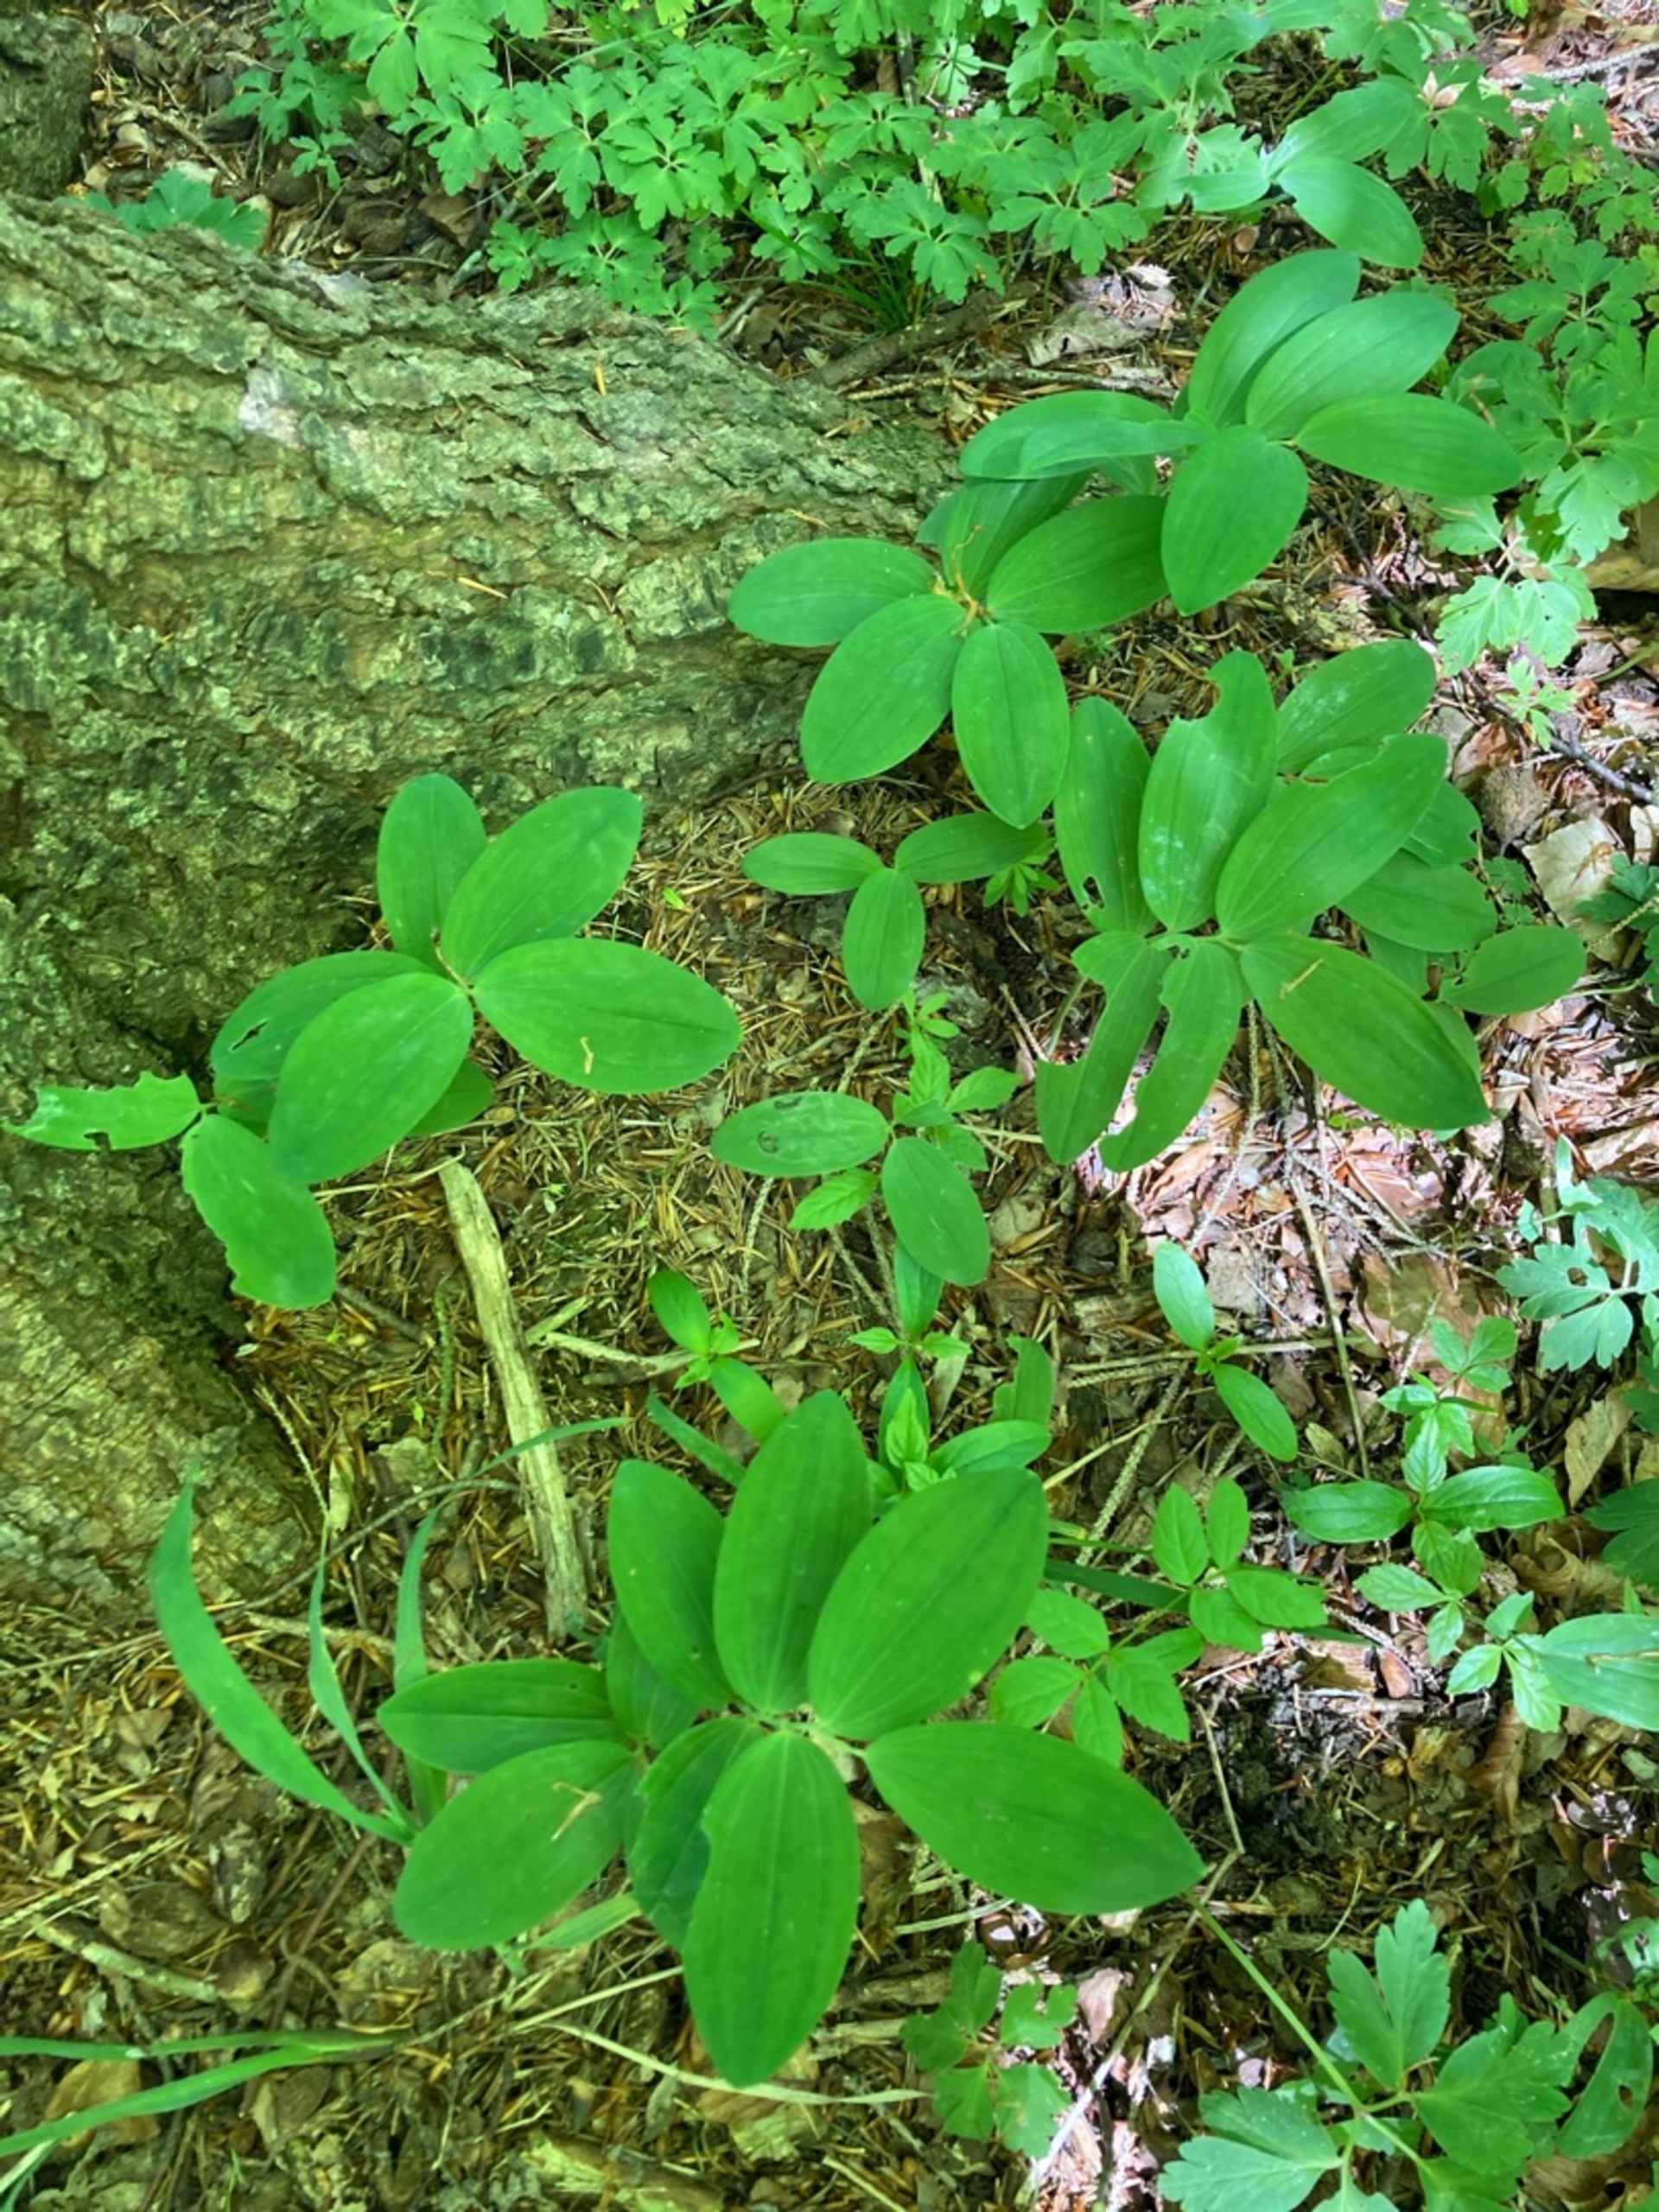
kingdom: Plantae
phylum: Tracheophyta
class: Liliopsida
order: Asparagales
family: Asparagaceae
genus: Polygonatum
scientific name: Polygonatum multiflorum
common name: Stor konval
